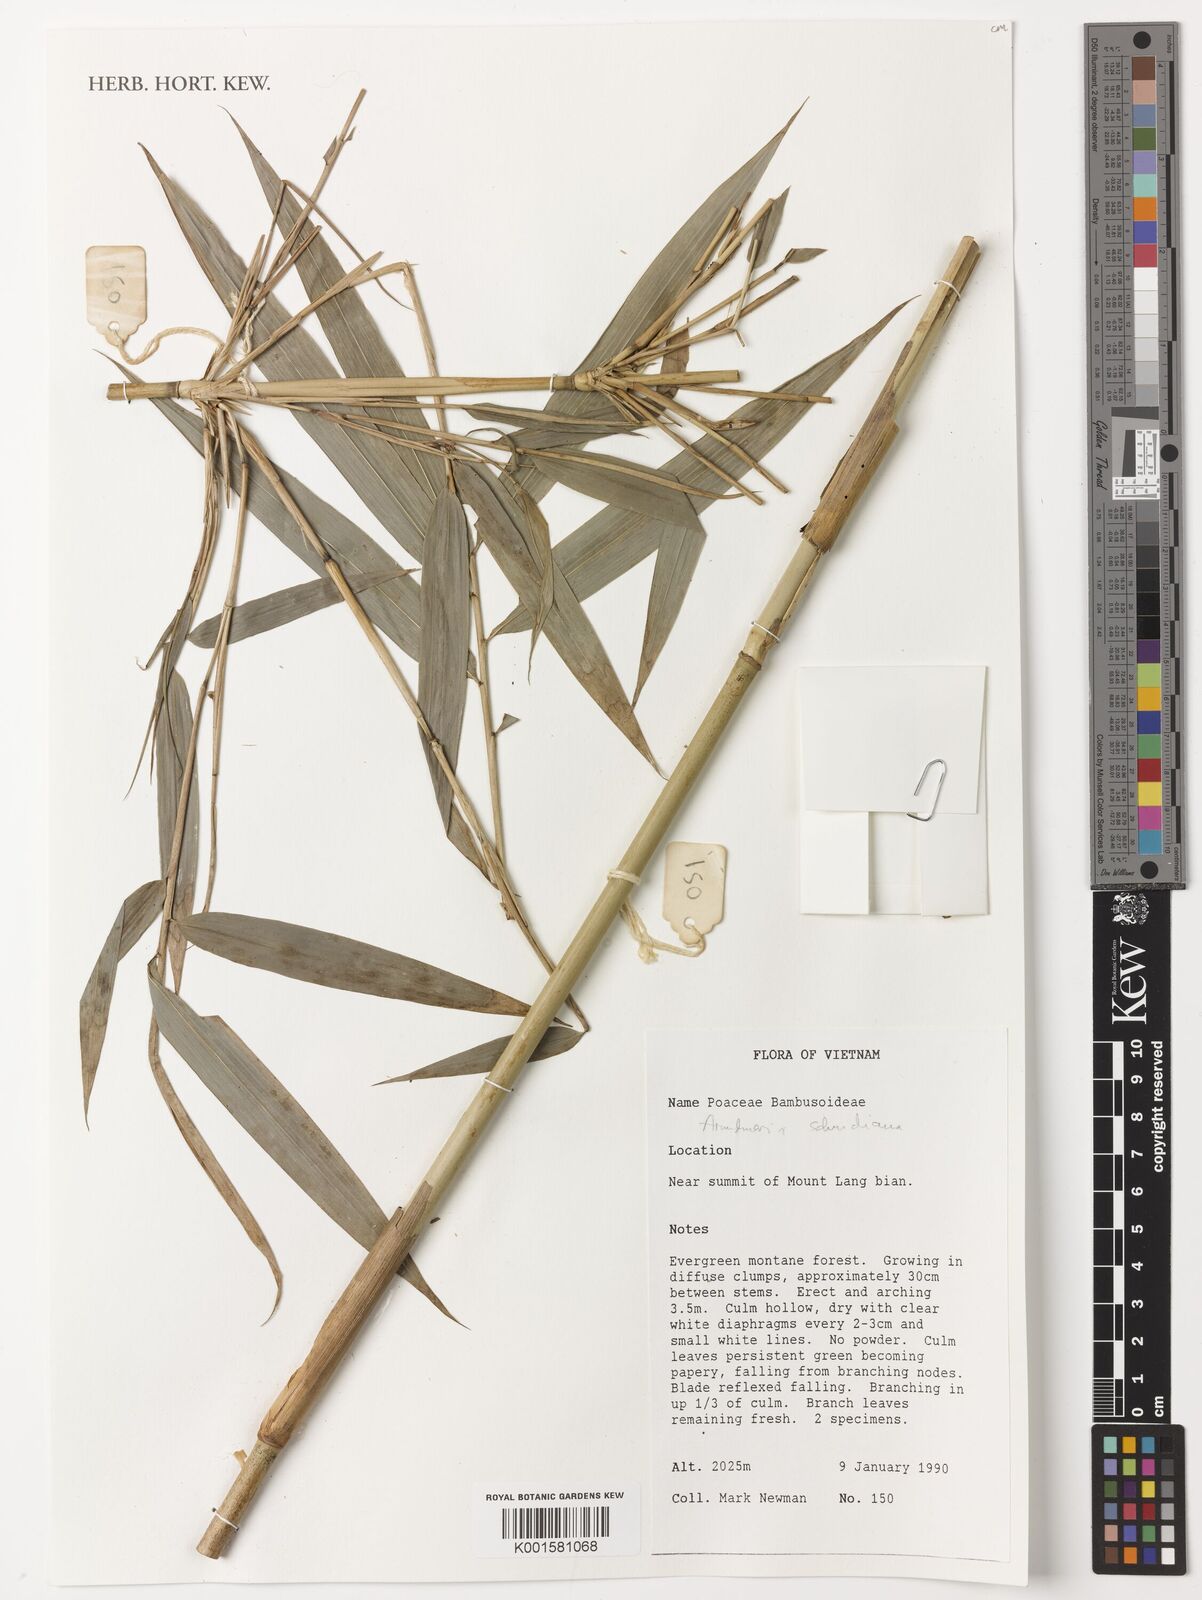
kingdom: Plantae
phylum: Tracheophyta
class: Liliopsida
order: Poales
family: Poaceae
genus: Yushania
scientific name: Yushania schmidiana
